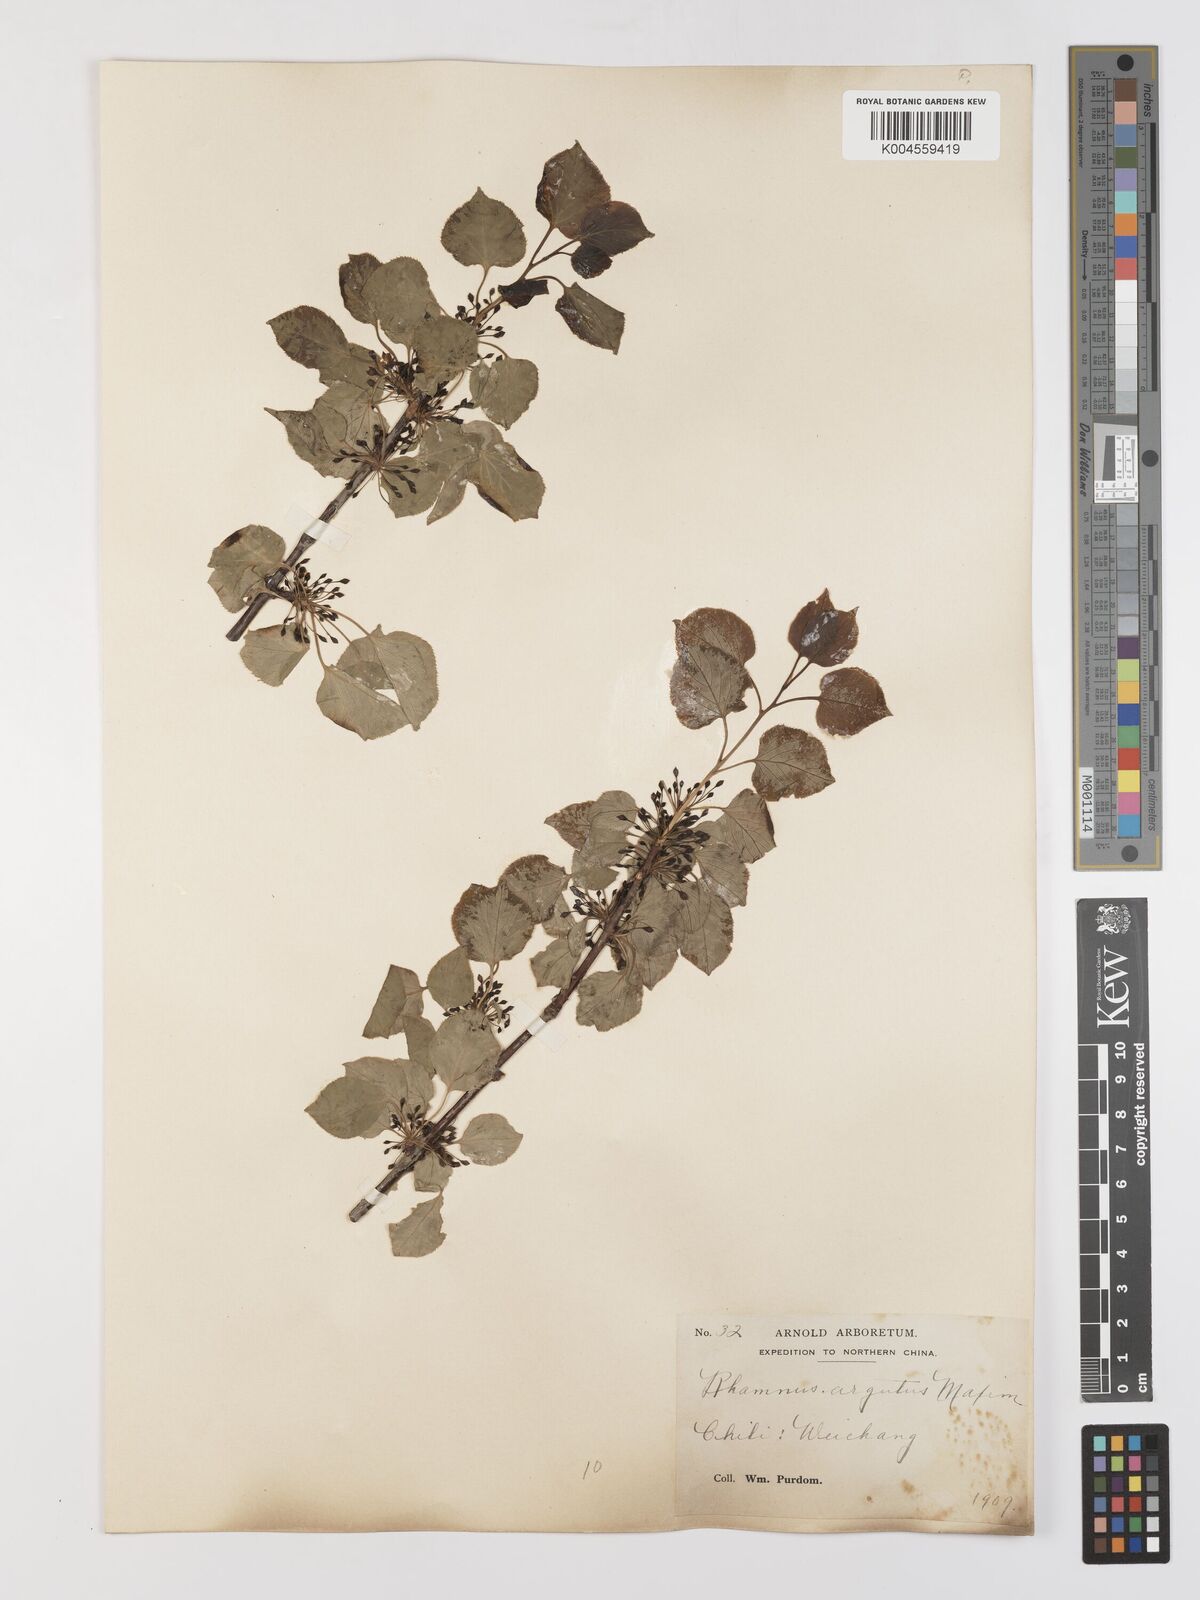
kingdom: Plantae
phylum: Tracheophyta
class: Magnoliopsida
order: Rosales
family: Rhamnaceae
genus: Rhamnus
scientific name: Rhamnus arguta
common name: Sharp-tooth buckthorn
